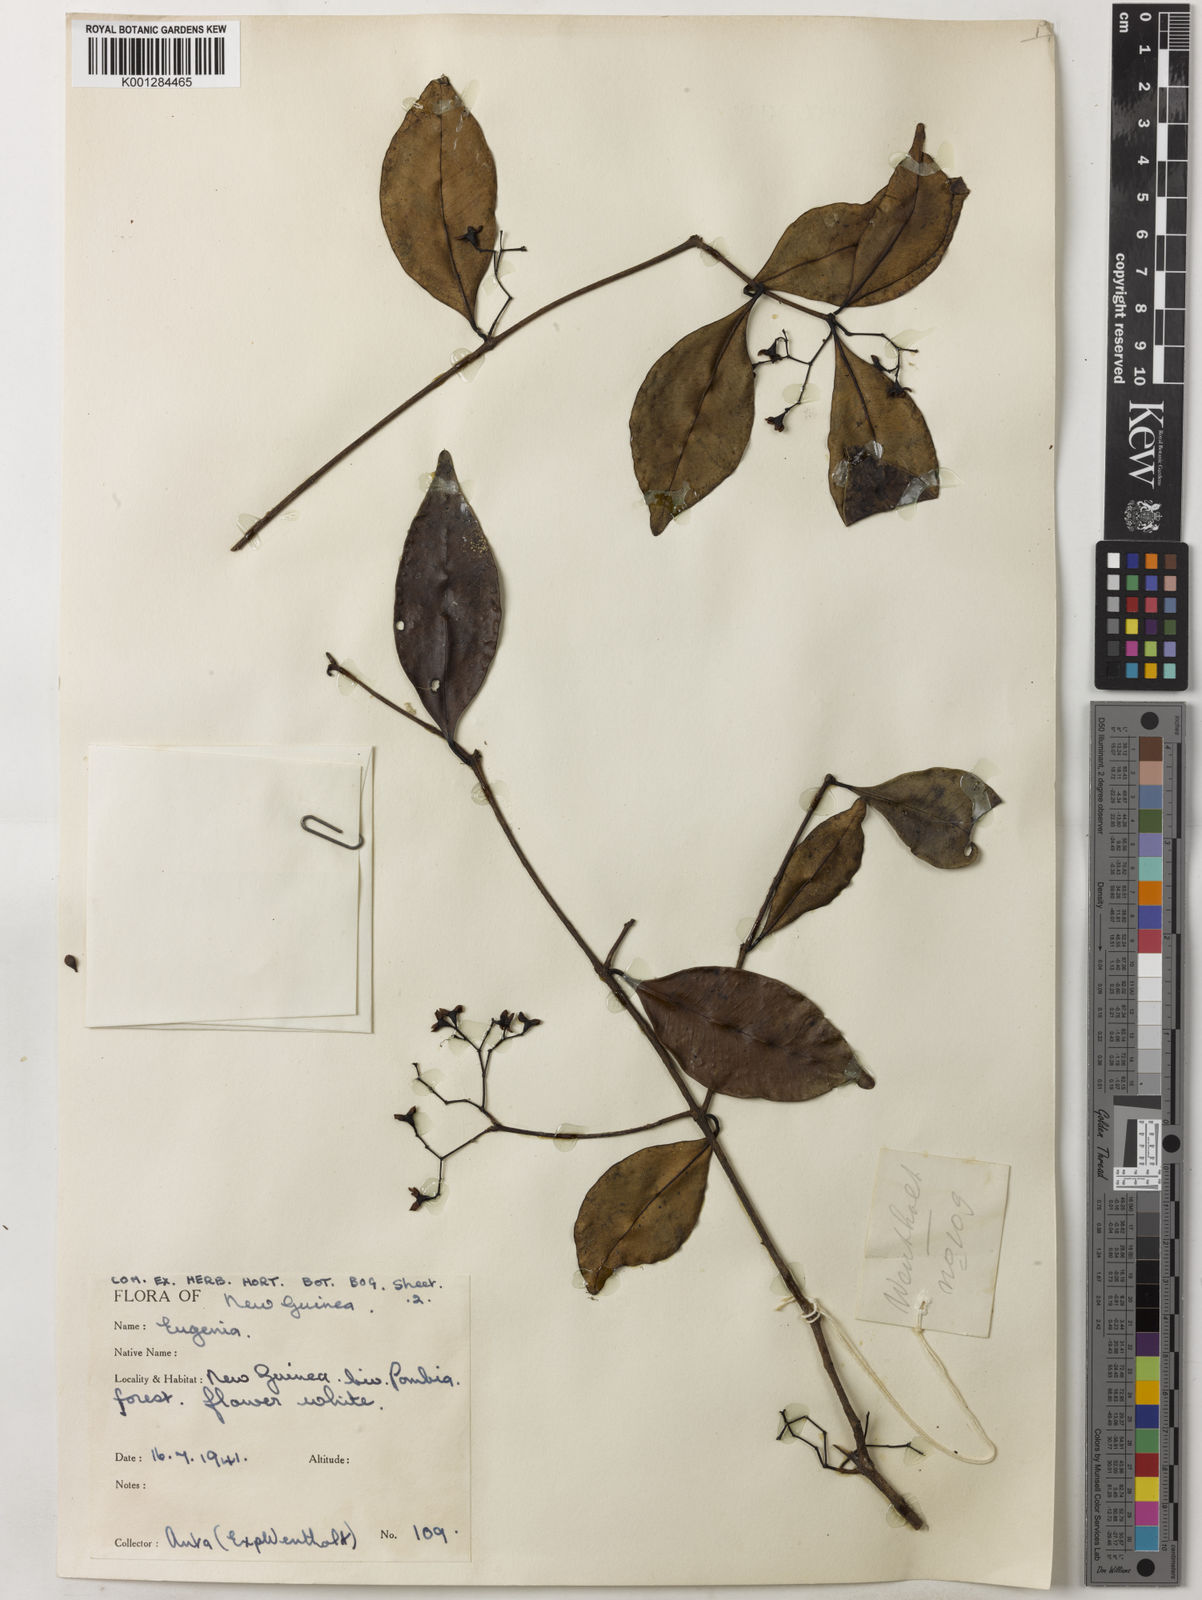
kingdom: Plantae
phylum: Tracheophyta
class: Magnoliopsida
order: Myrtales
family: Myrtaceae
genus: Syzygium
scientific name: Syzygium fibrosum
